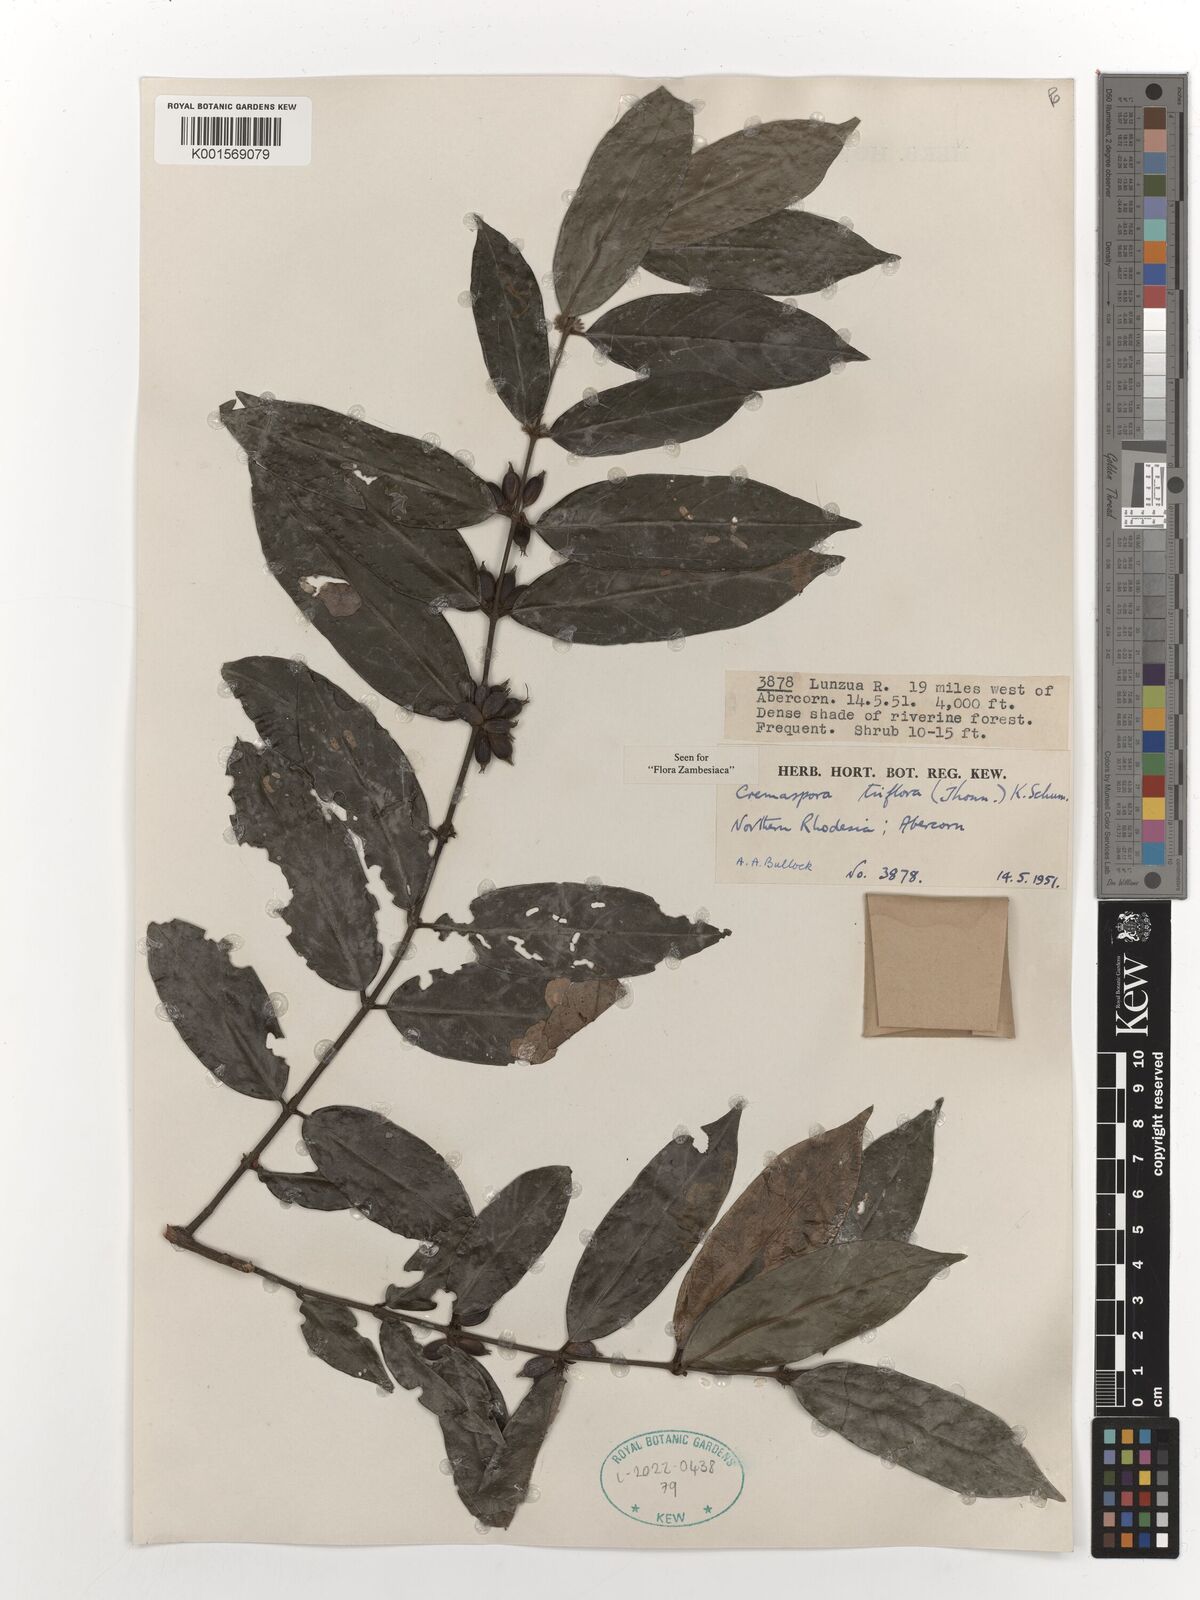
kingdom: Plantae
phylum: Tracheophyta
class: Magnoliopsida
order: Gentianales
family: Rubiaceae
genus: Cremaspora
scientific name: Cremaspora triflora
